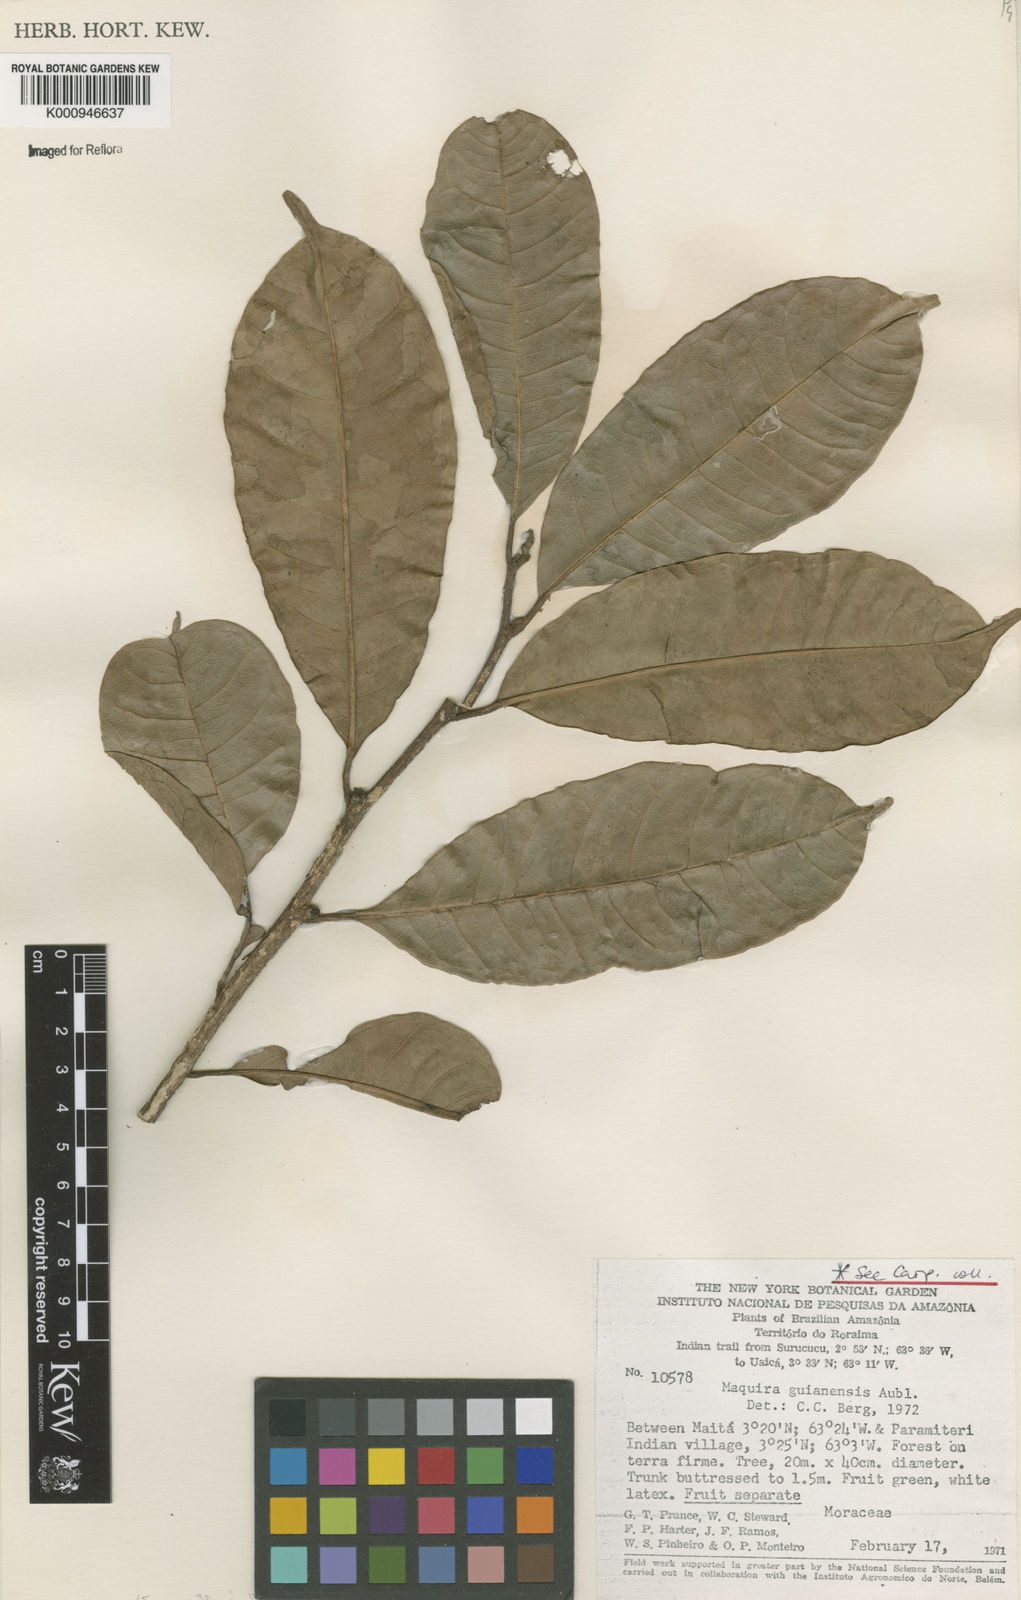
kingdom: Plantae
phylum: Tracheophyta
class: Magnoliopsida
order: Rosales
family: Moraceae
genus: Maquira
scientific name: Maquira guianensis
